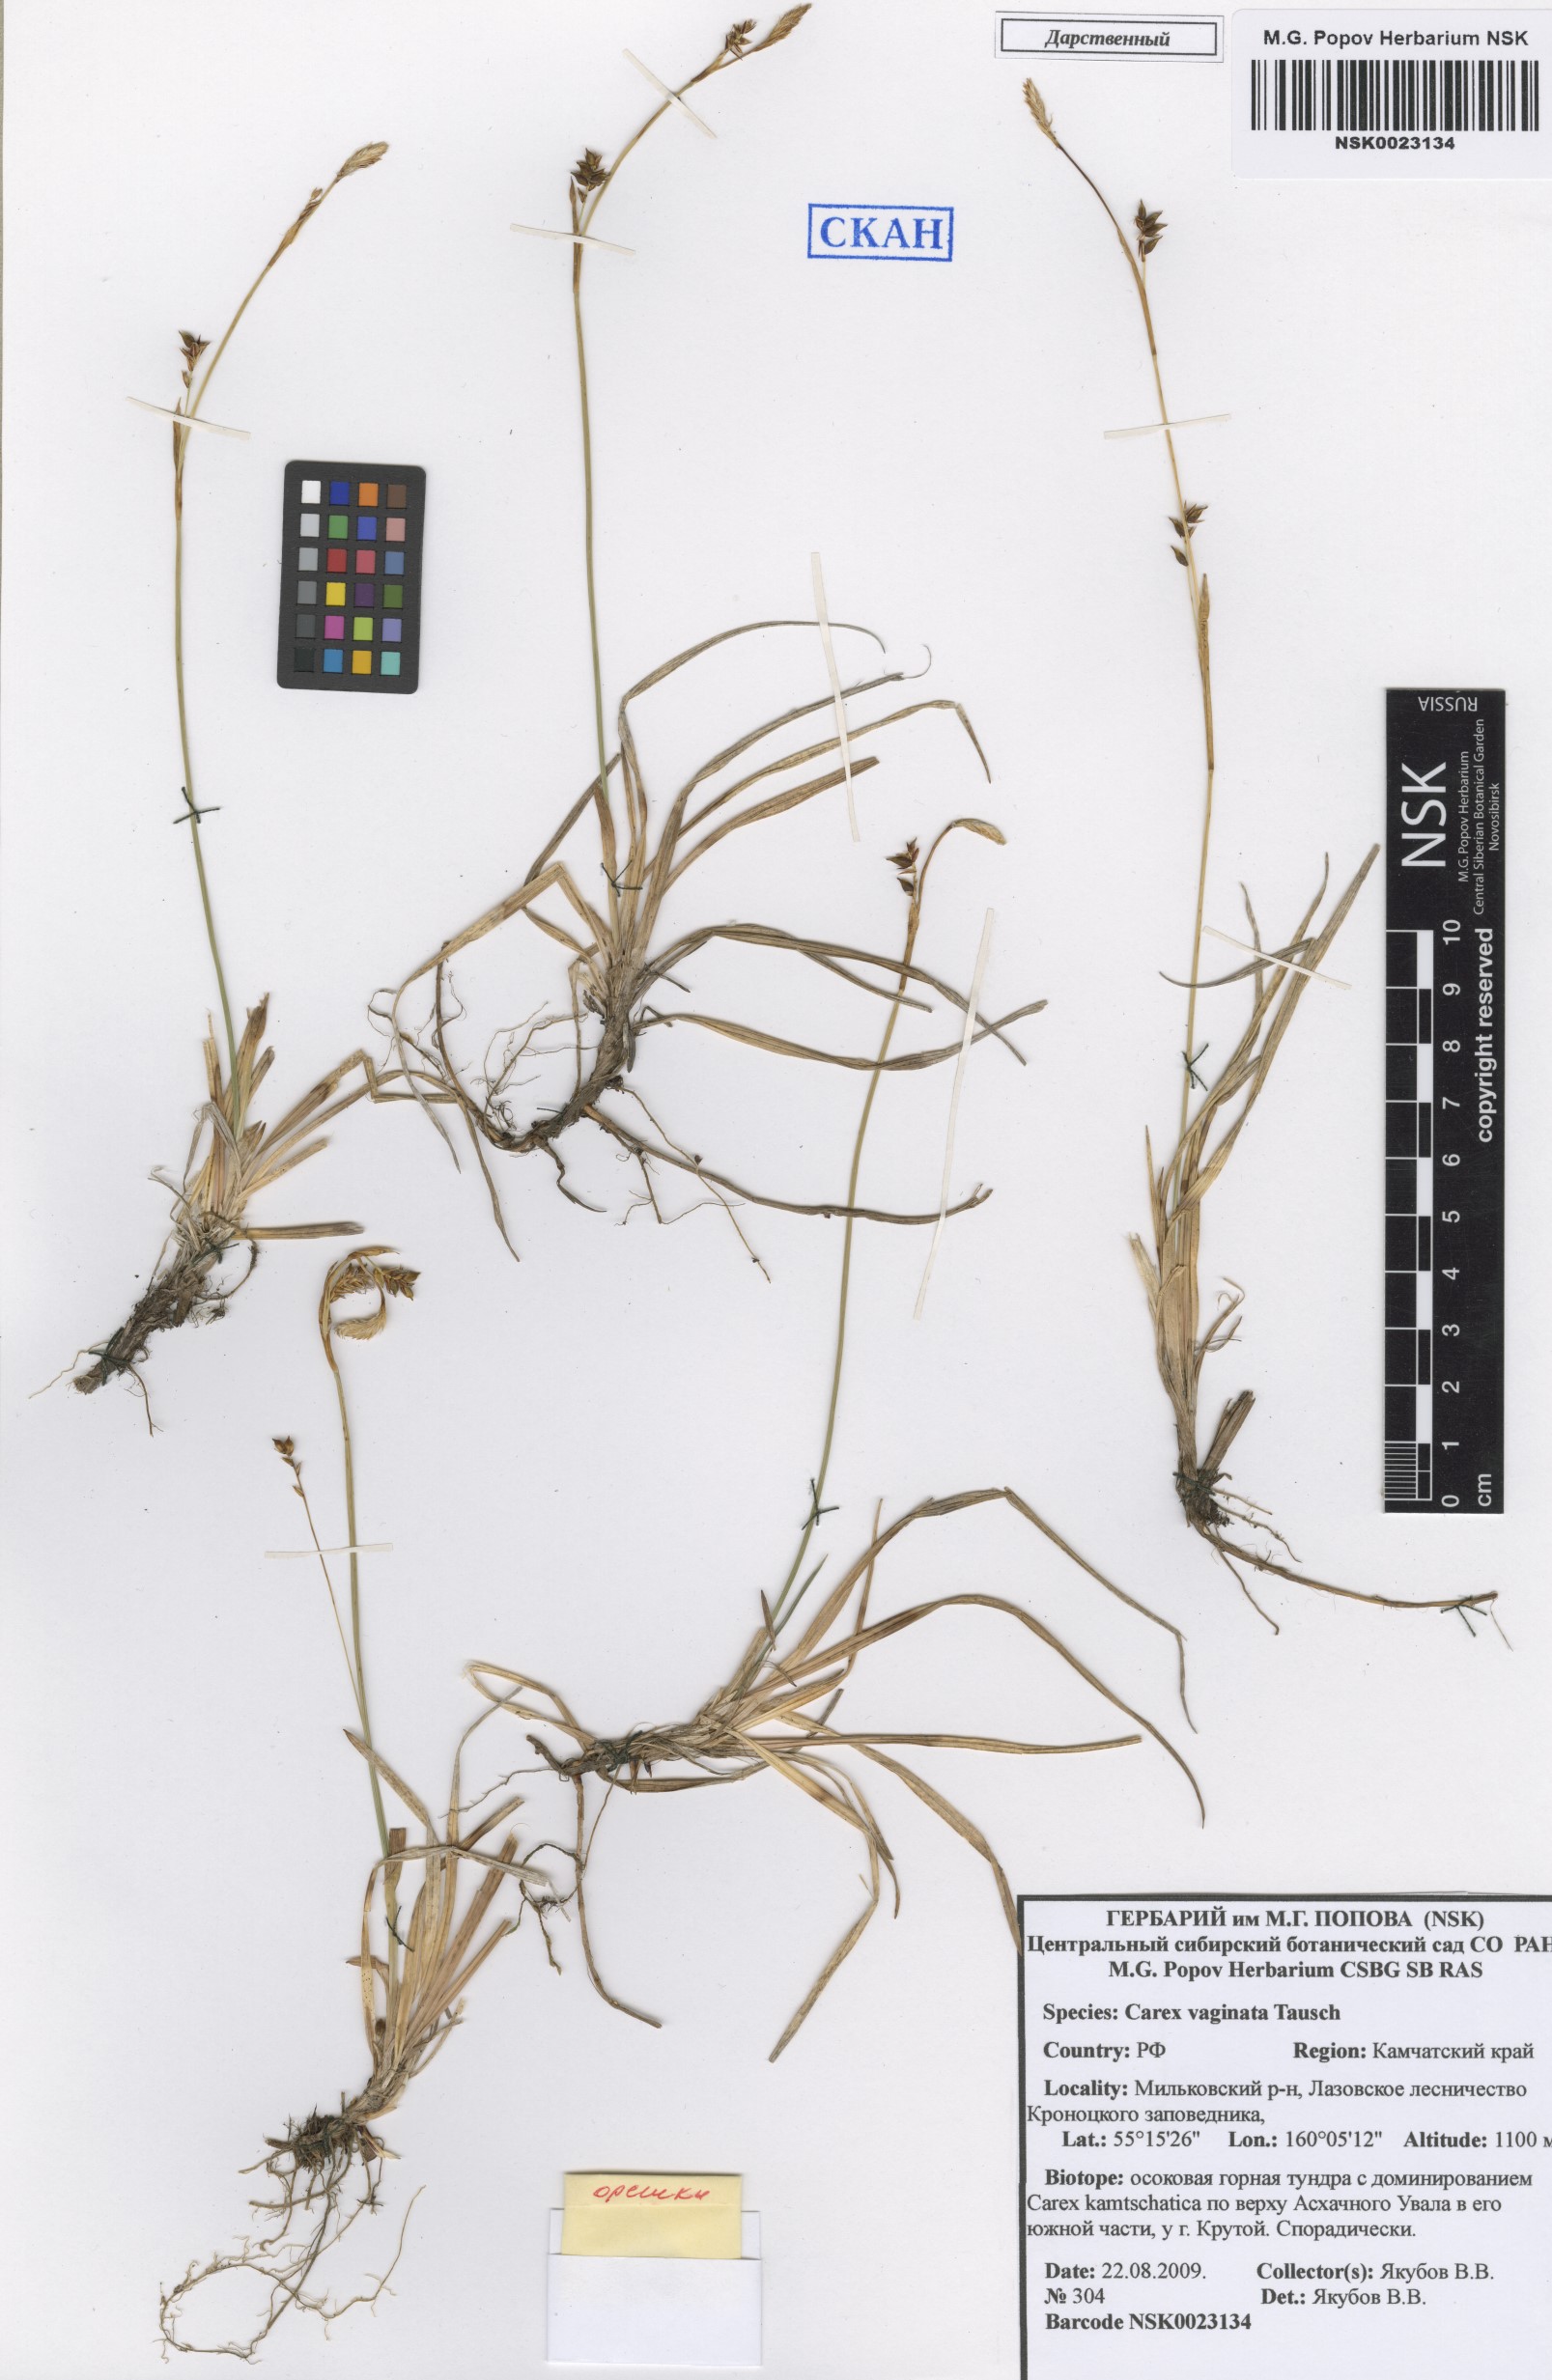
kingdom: Plantae
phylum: Tracheophyta
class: Liliopsida
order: Poales
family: Cyperaceae
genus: Carex
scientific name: Carex vaginata
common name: Sheathed sedge
